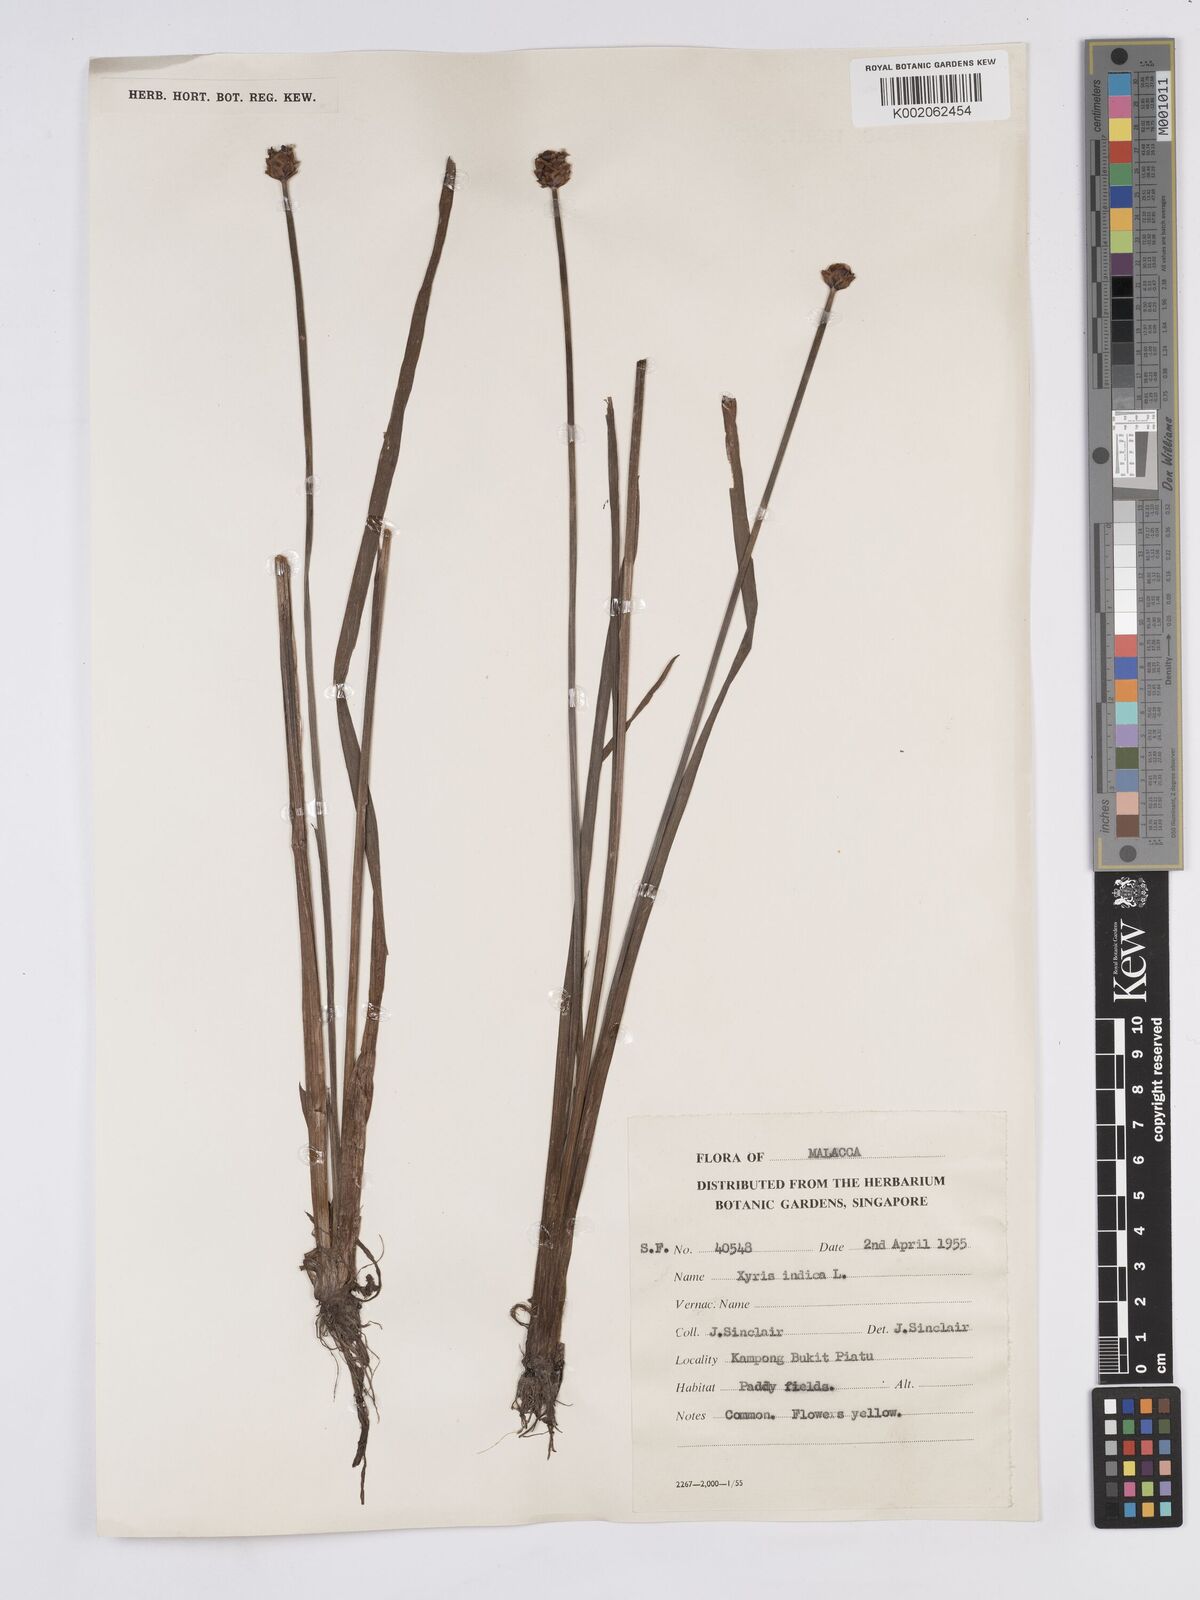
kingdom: Plantae
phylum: Tracheophyta
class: Liliopsida
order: Poales
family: Xyridaceae
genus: Xyris
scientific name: Xyris indica
